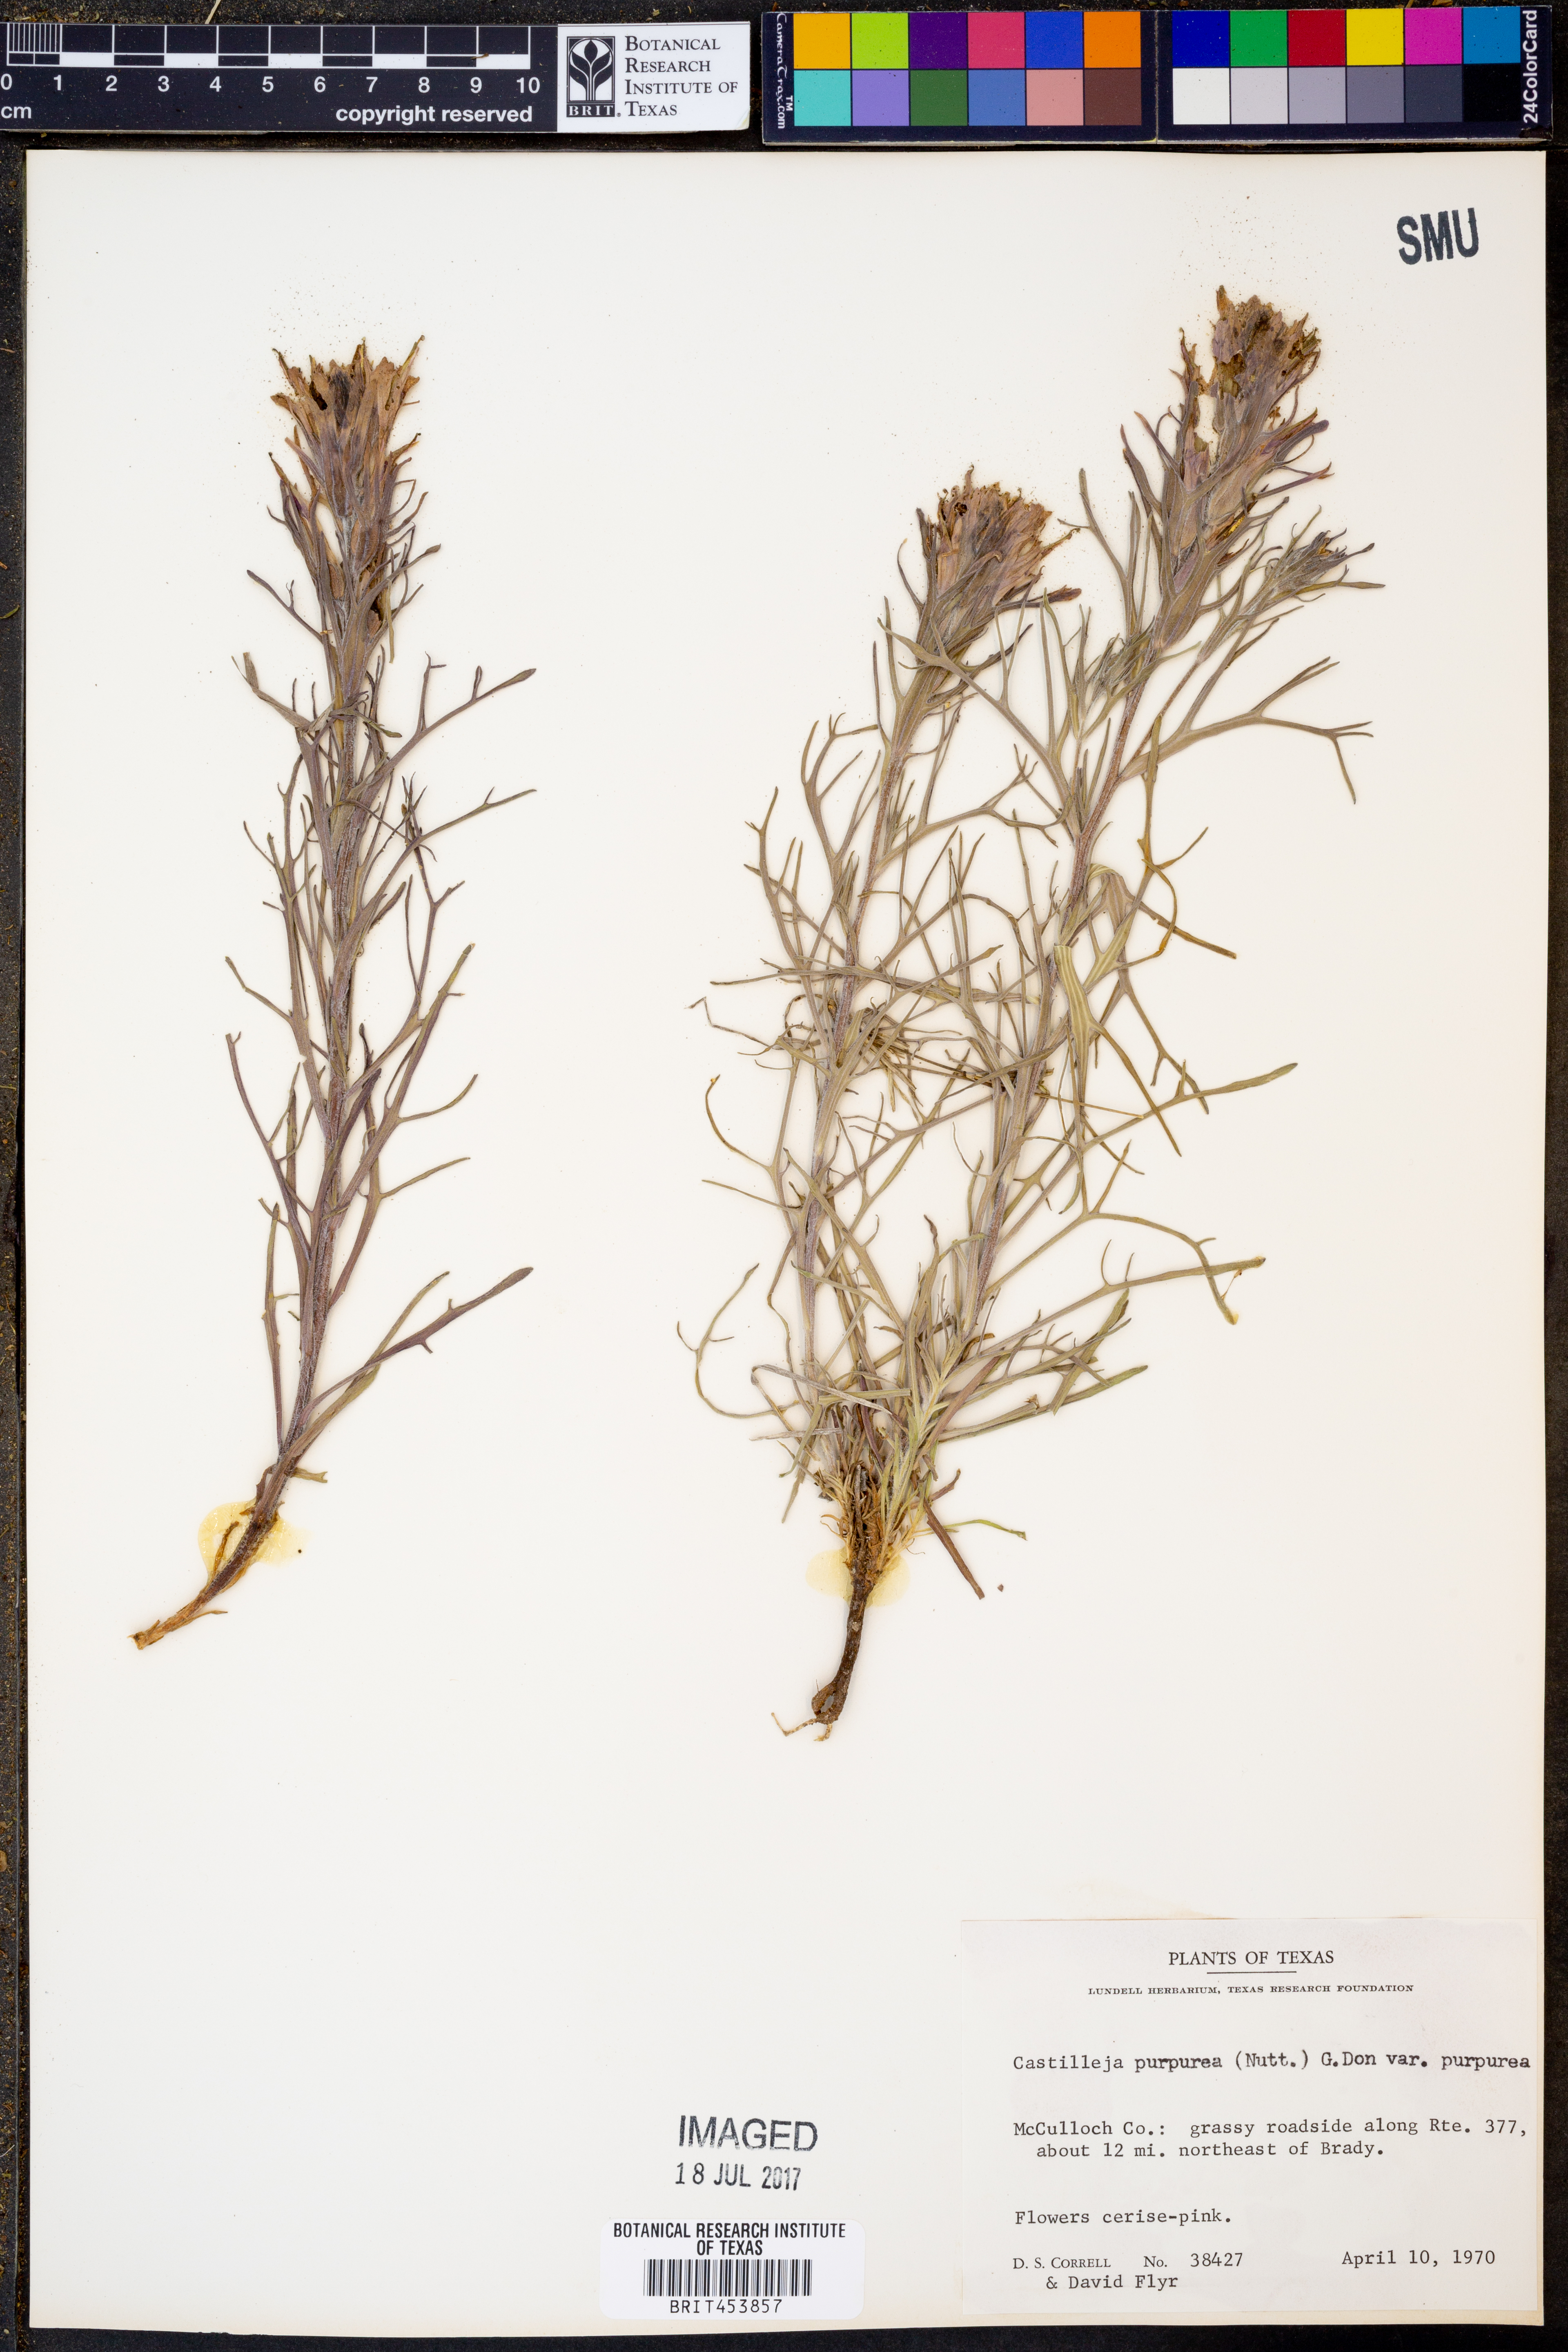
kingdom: Plantae
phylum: Tracheophyta
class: Magnoliopsida
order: Lamiales
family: Orobanchaceae
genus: Castilleja
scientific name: Castilleja purpurea
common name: Plains paintbrush
